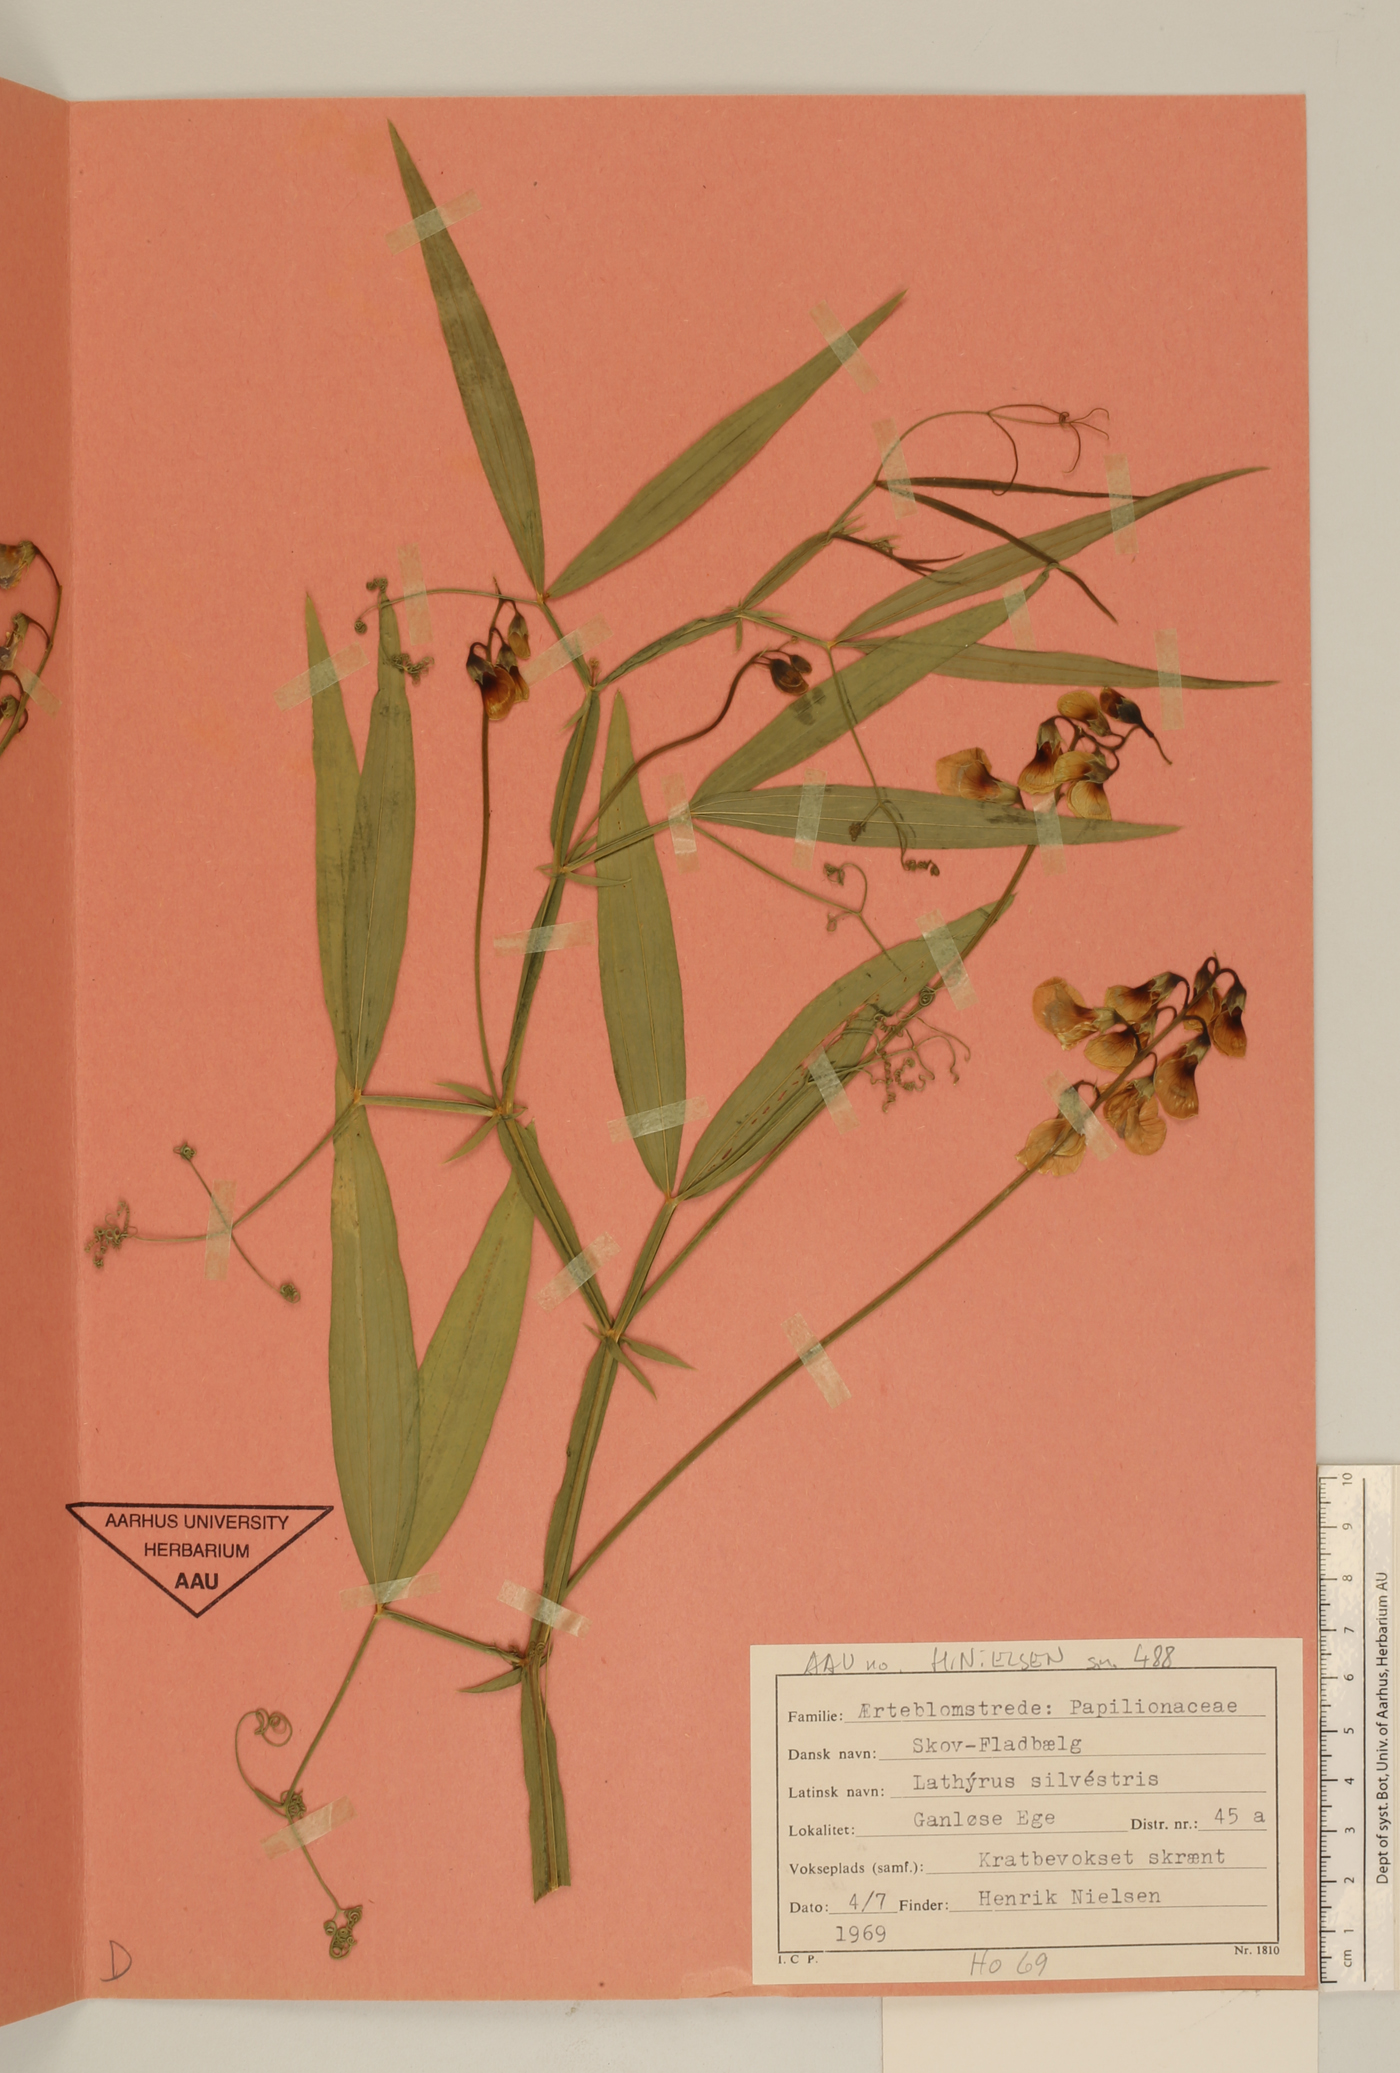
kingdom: Plantae
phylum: Tracheophyta
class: Magnoliopsida
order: Fabales
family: Fabaceae
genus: Lathyrus
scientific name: Lathyrus sylvestris
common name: Flat pea
